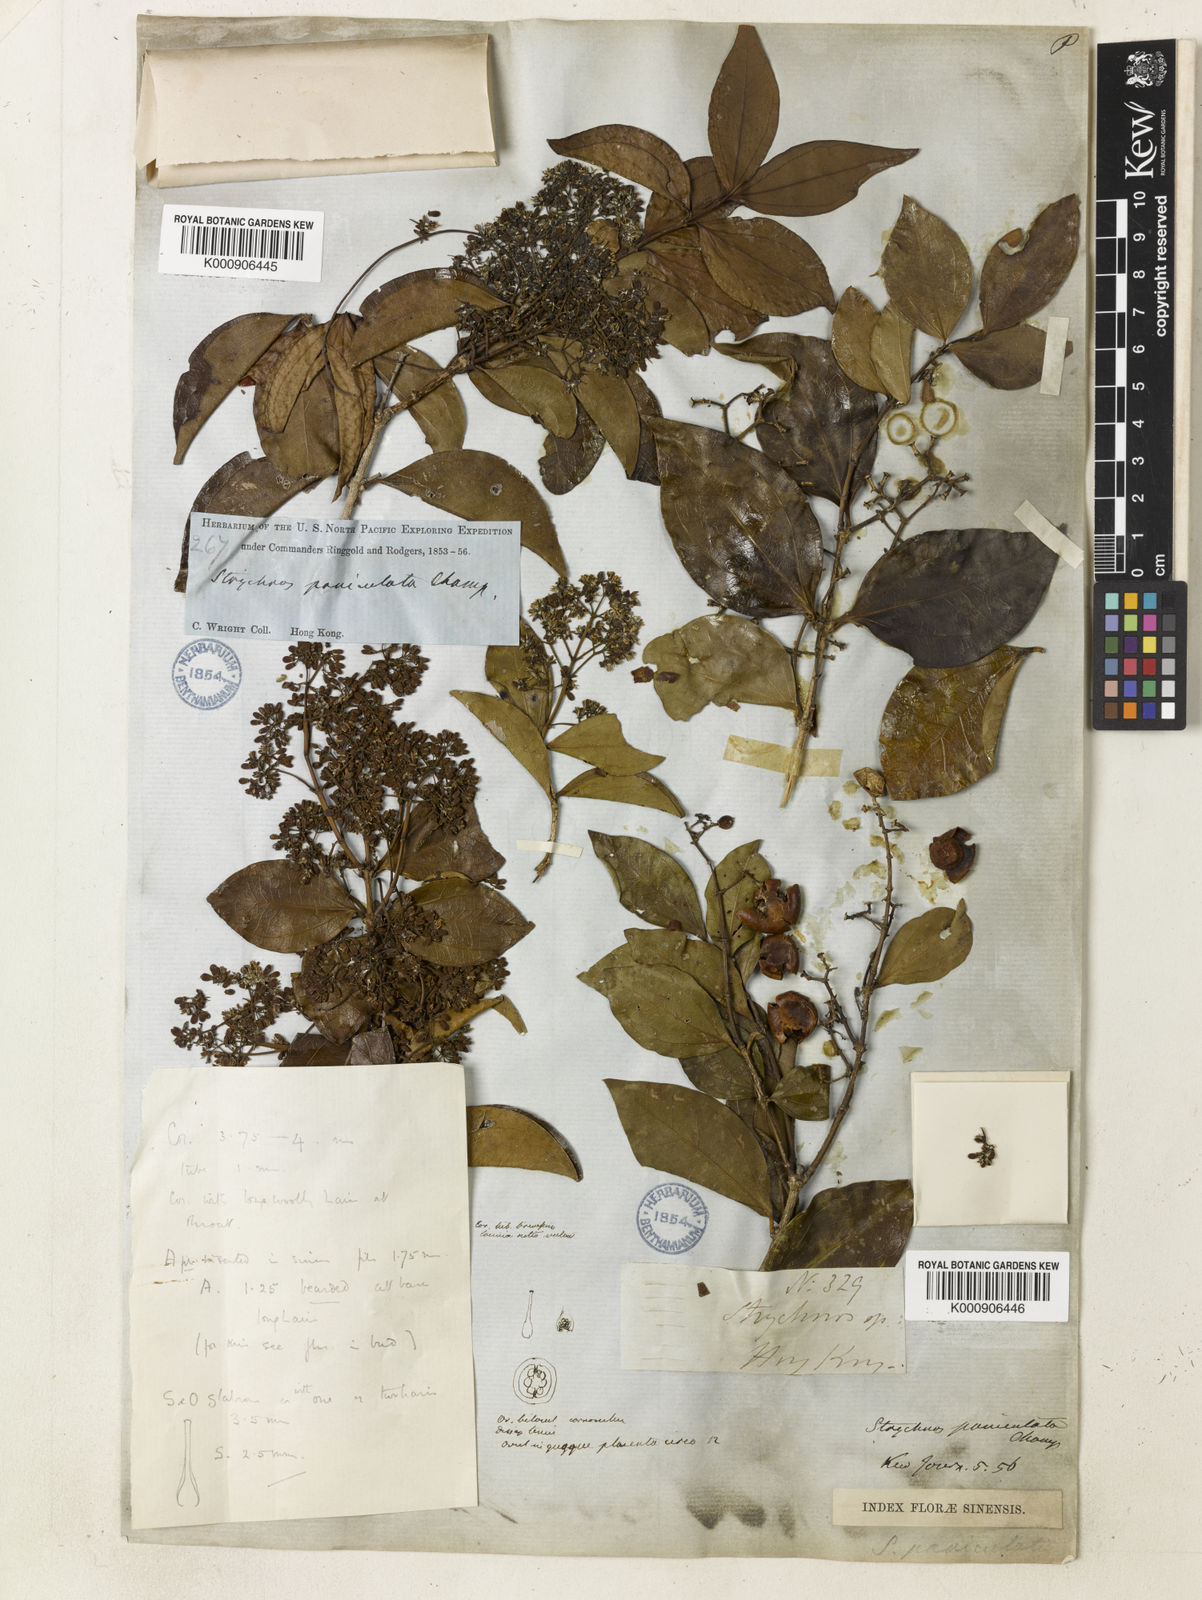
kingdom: Plantae
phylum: Tracheophyta
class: Magnoliopsida
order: Gentianales
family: Loganiaceae
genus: Strychnos
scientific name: Strychnos umbellata
